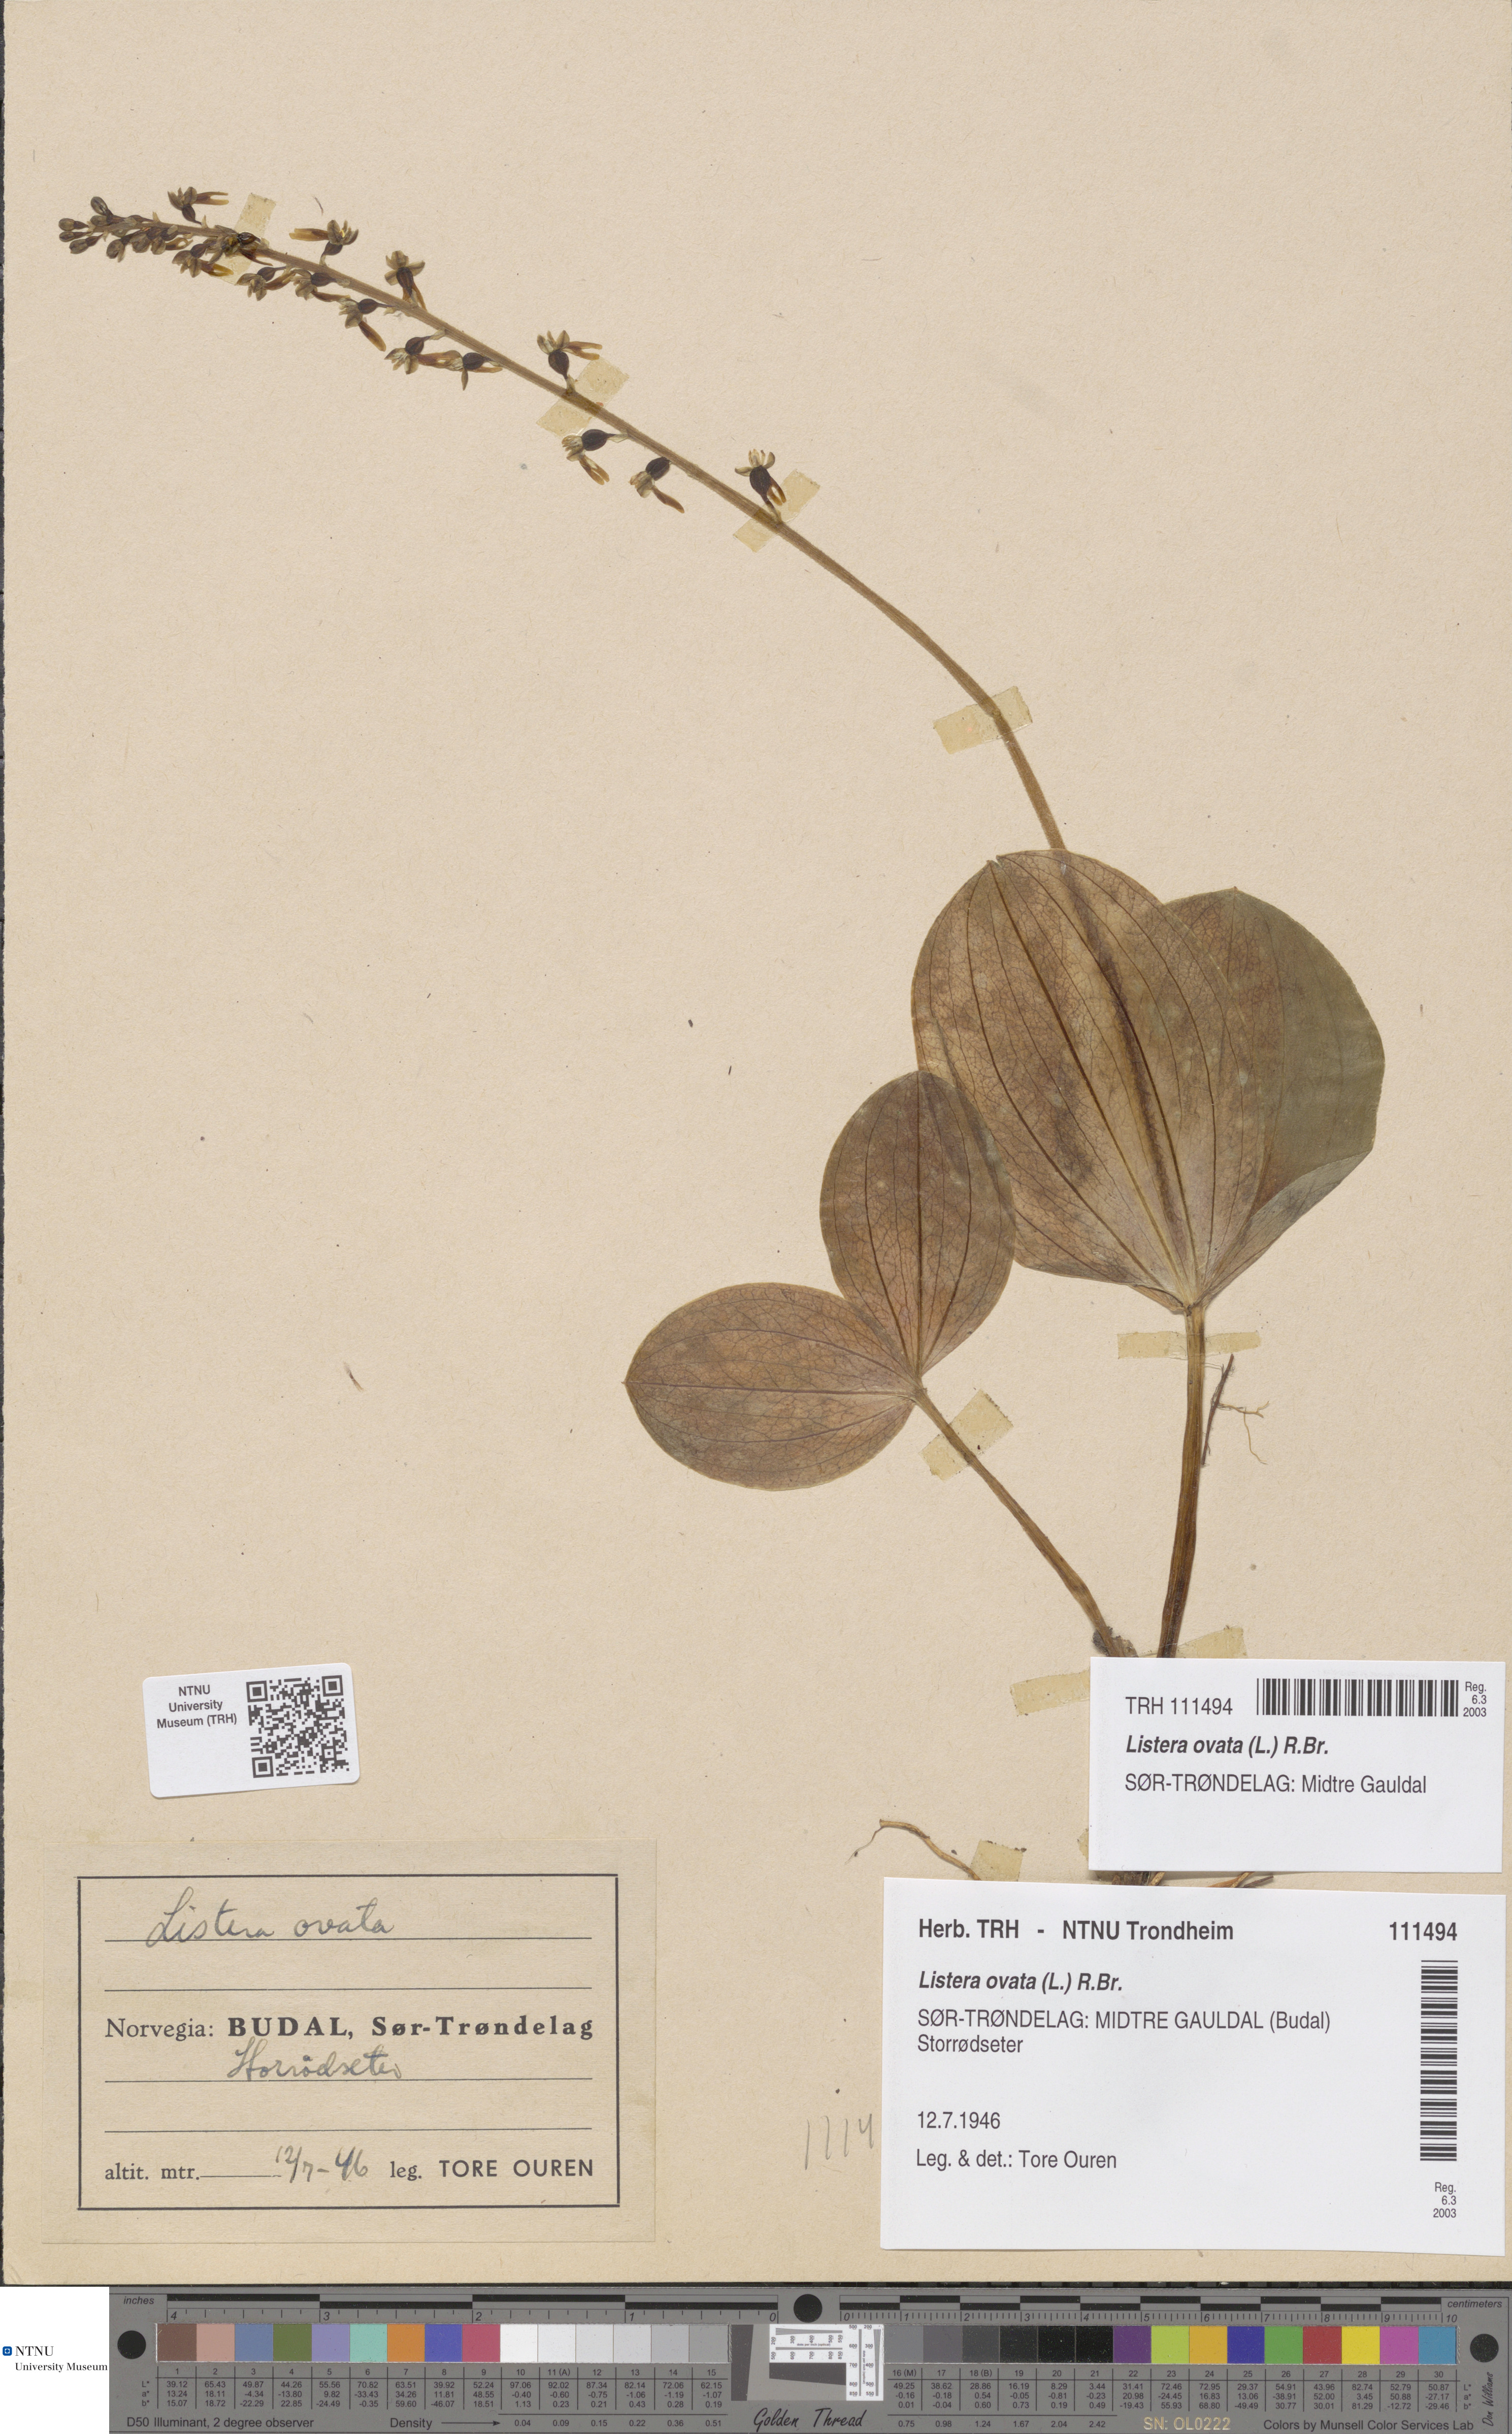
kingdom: Plantae
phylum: Tracheophyta
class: Liliopsida
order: Asparagales
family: Orchidaceae
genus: Neottia
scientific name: Neottia ovata
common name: Common twayblade
